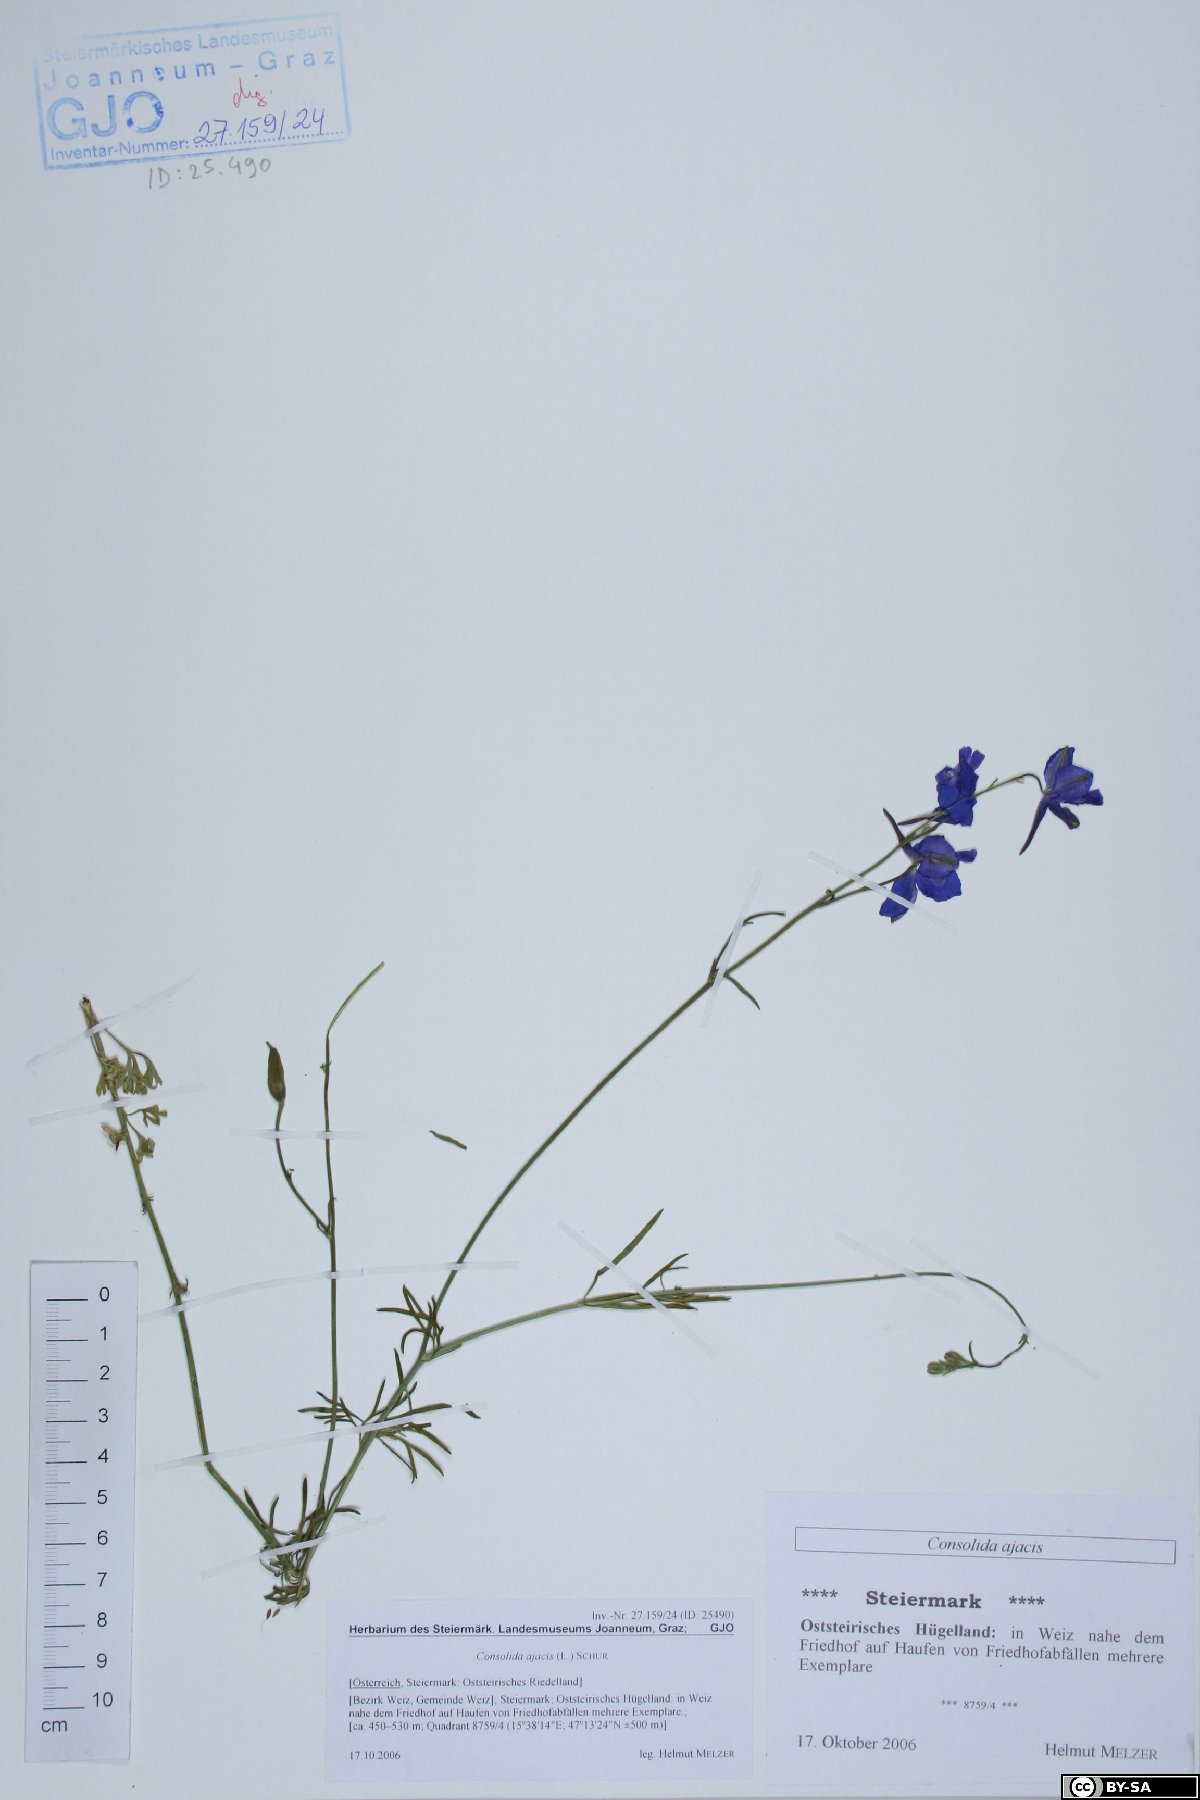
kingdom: Plantae
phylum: Tracheophyta
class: Magnoliopsida
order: Ranunculales
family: Ranunculaceae
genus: Delphinium
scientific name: Delphinium ajacis
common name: Doubtful knight's-spur
